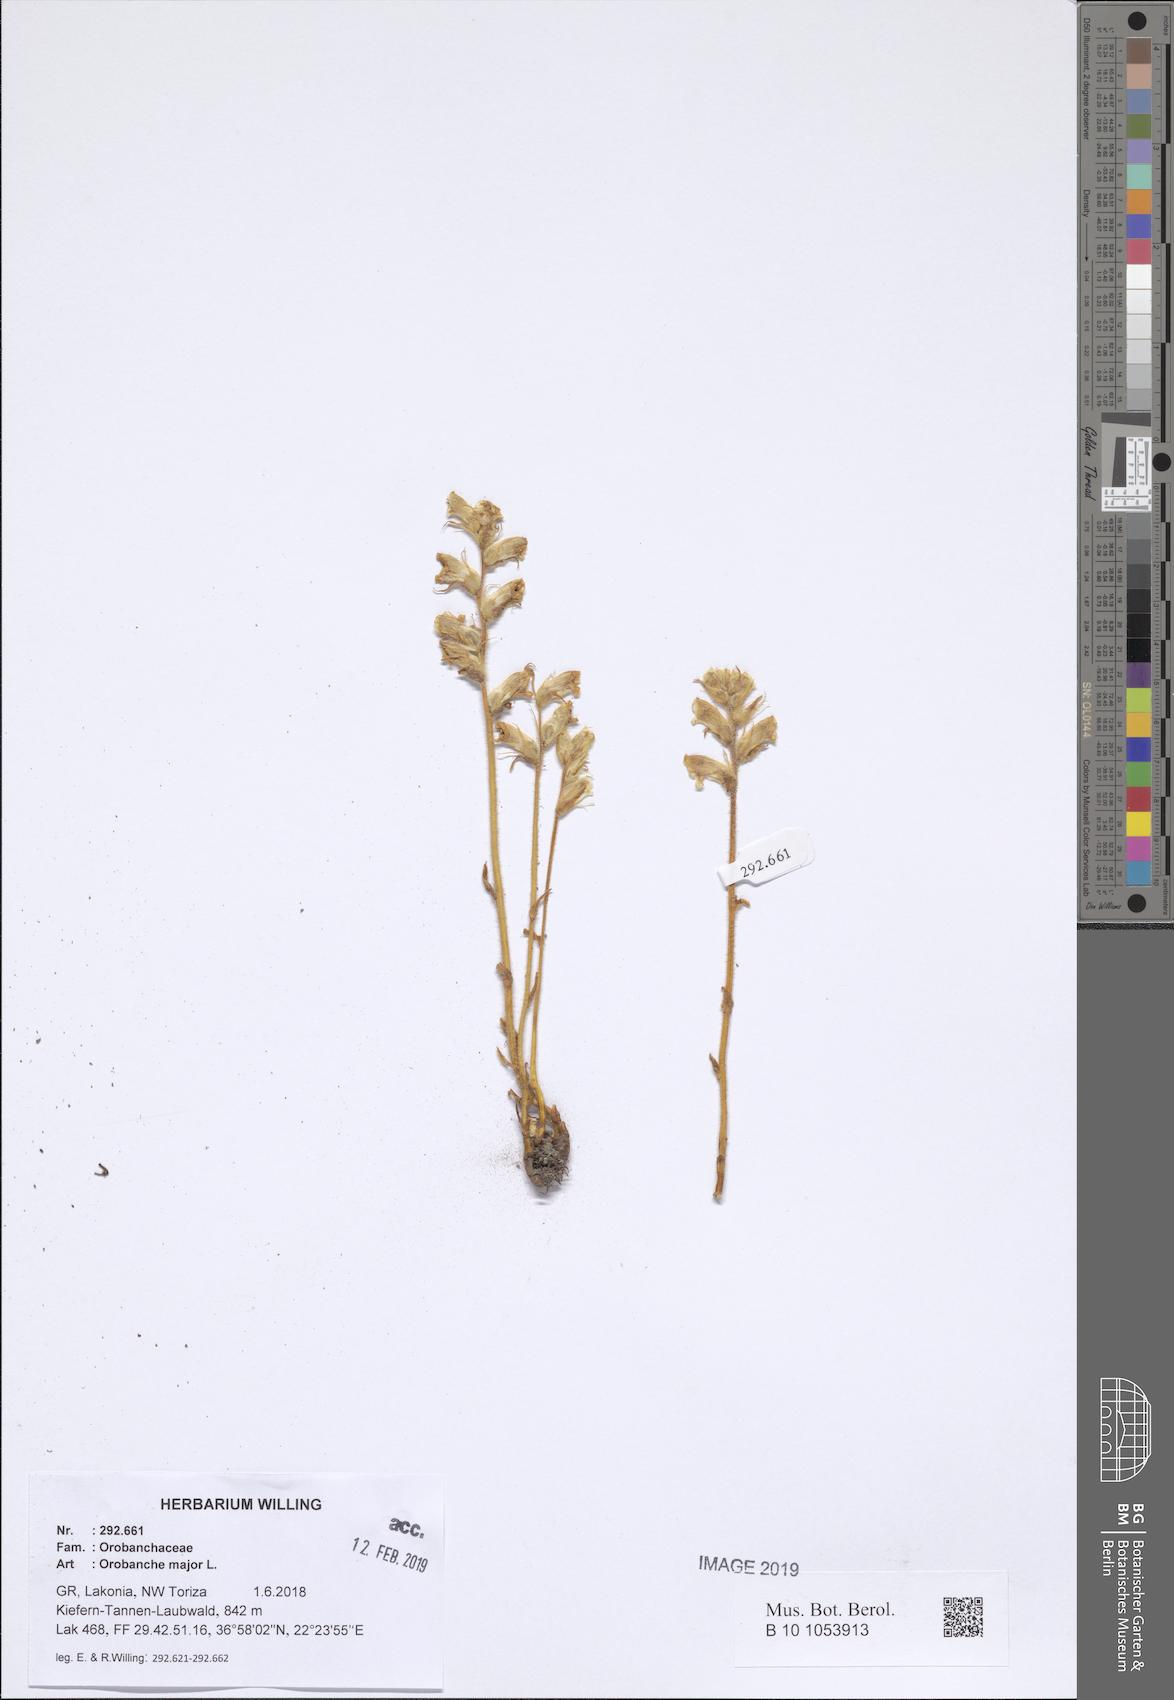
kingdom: Plantae
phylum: Tracheophyta
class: Magnoliopsida
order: Lamiales
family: Orobanchaceae
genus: Orobanche
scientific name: Orobanche rapum-genistae
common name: Greater broomrape
